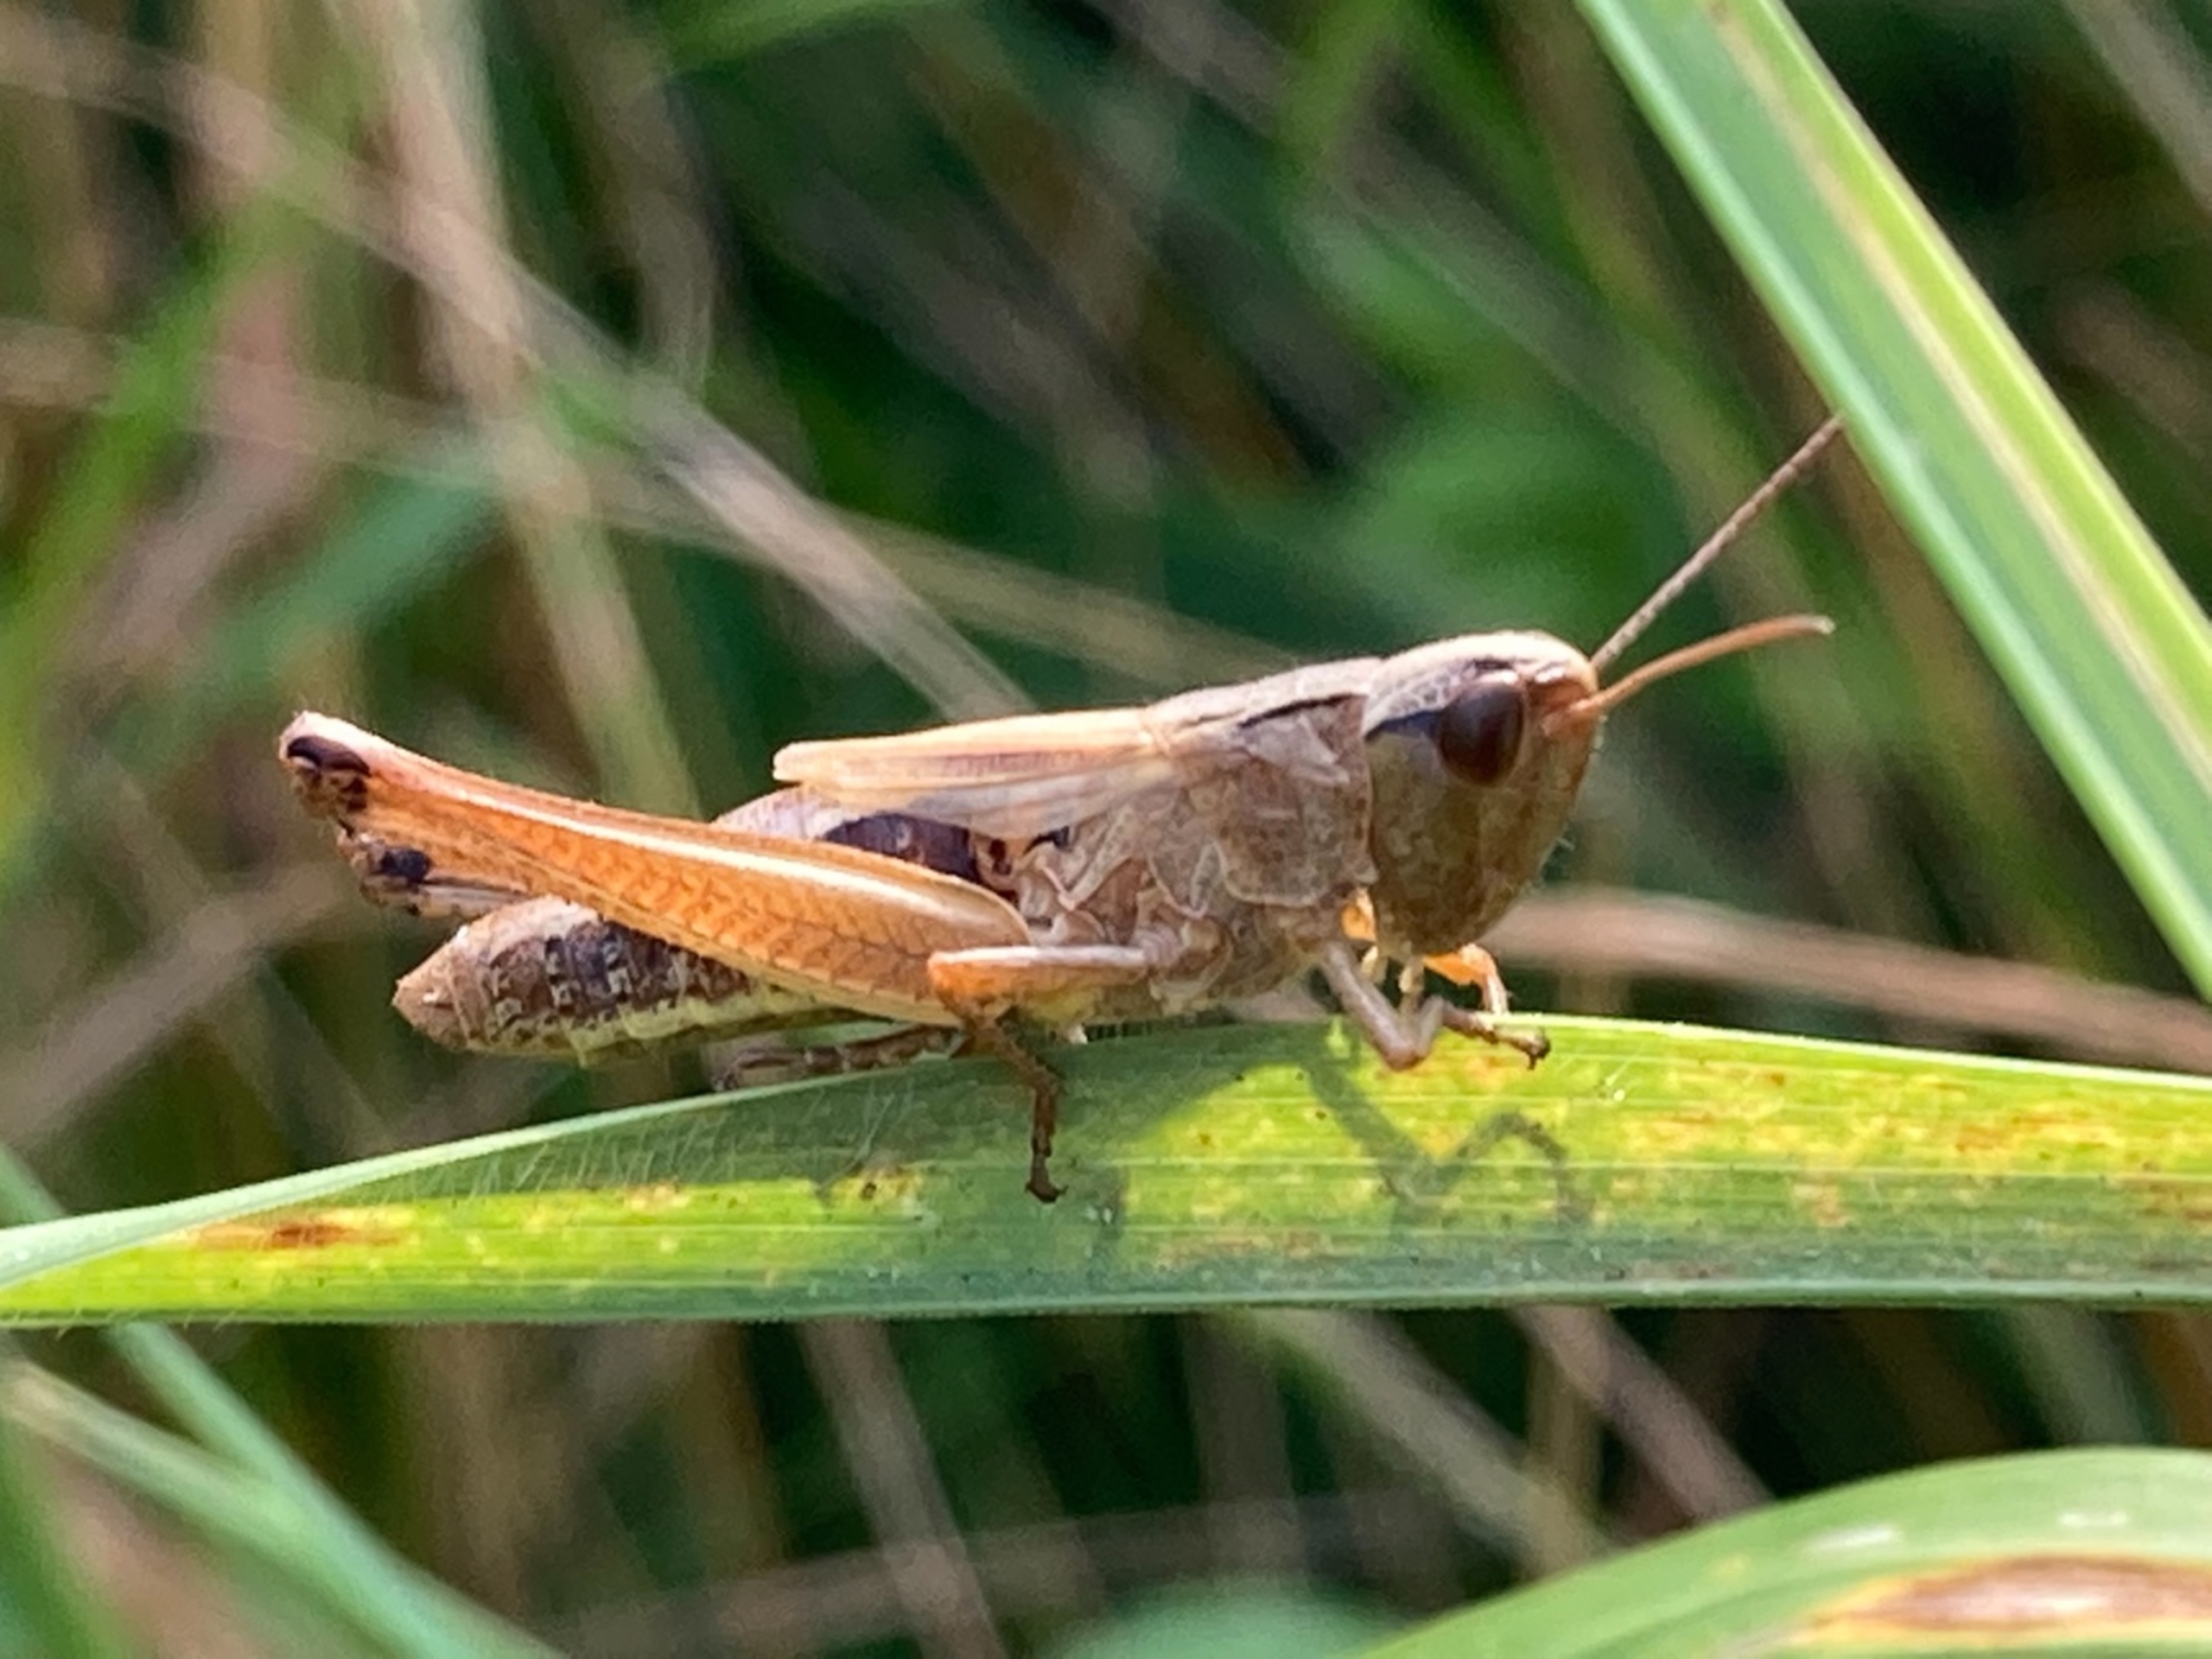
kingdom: Animalia
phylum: Arthropoda
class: Insecta
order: Orthoptera
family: Acrididae
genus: Pseudochorthippus
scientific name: Pseudochorthippus parallelus
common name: Enggræshoppe
